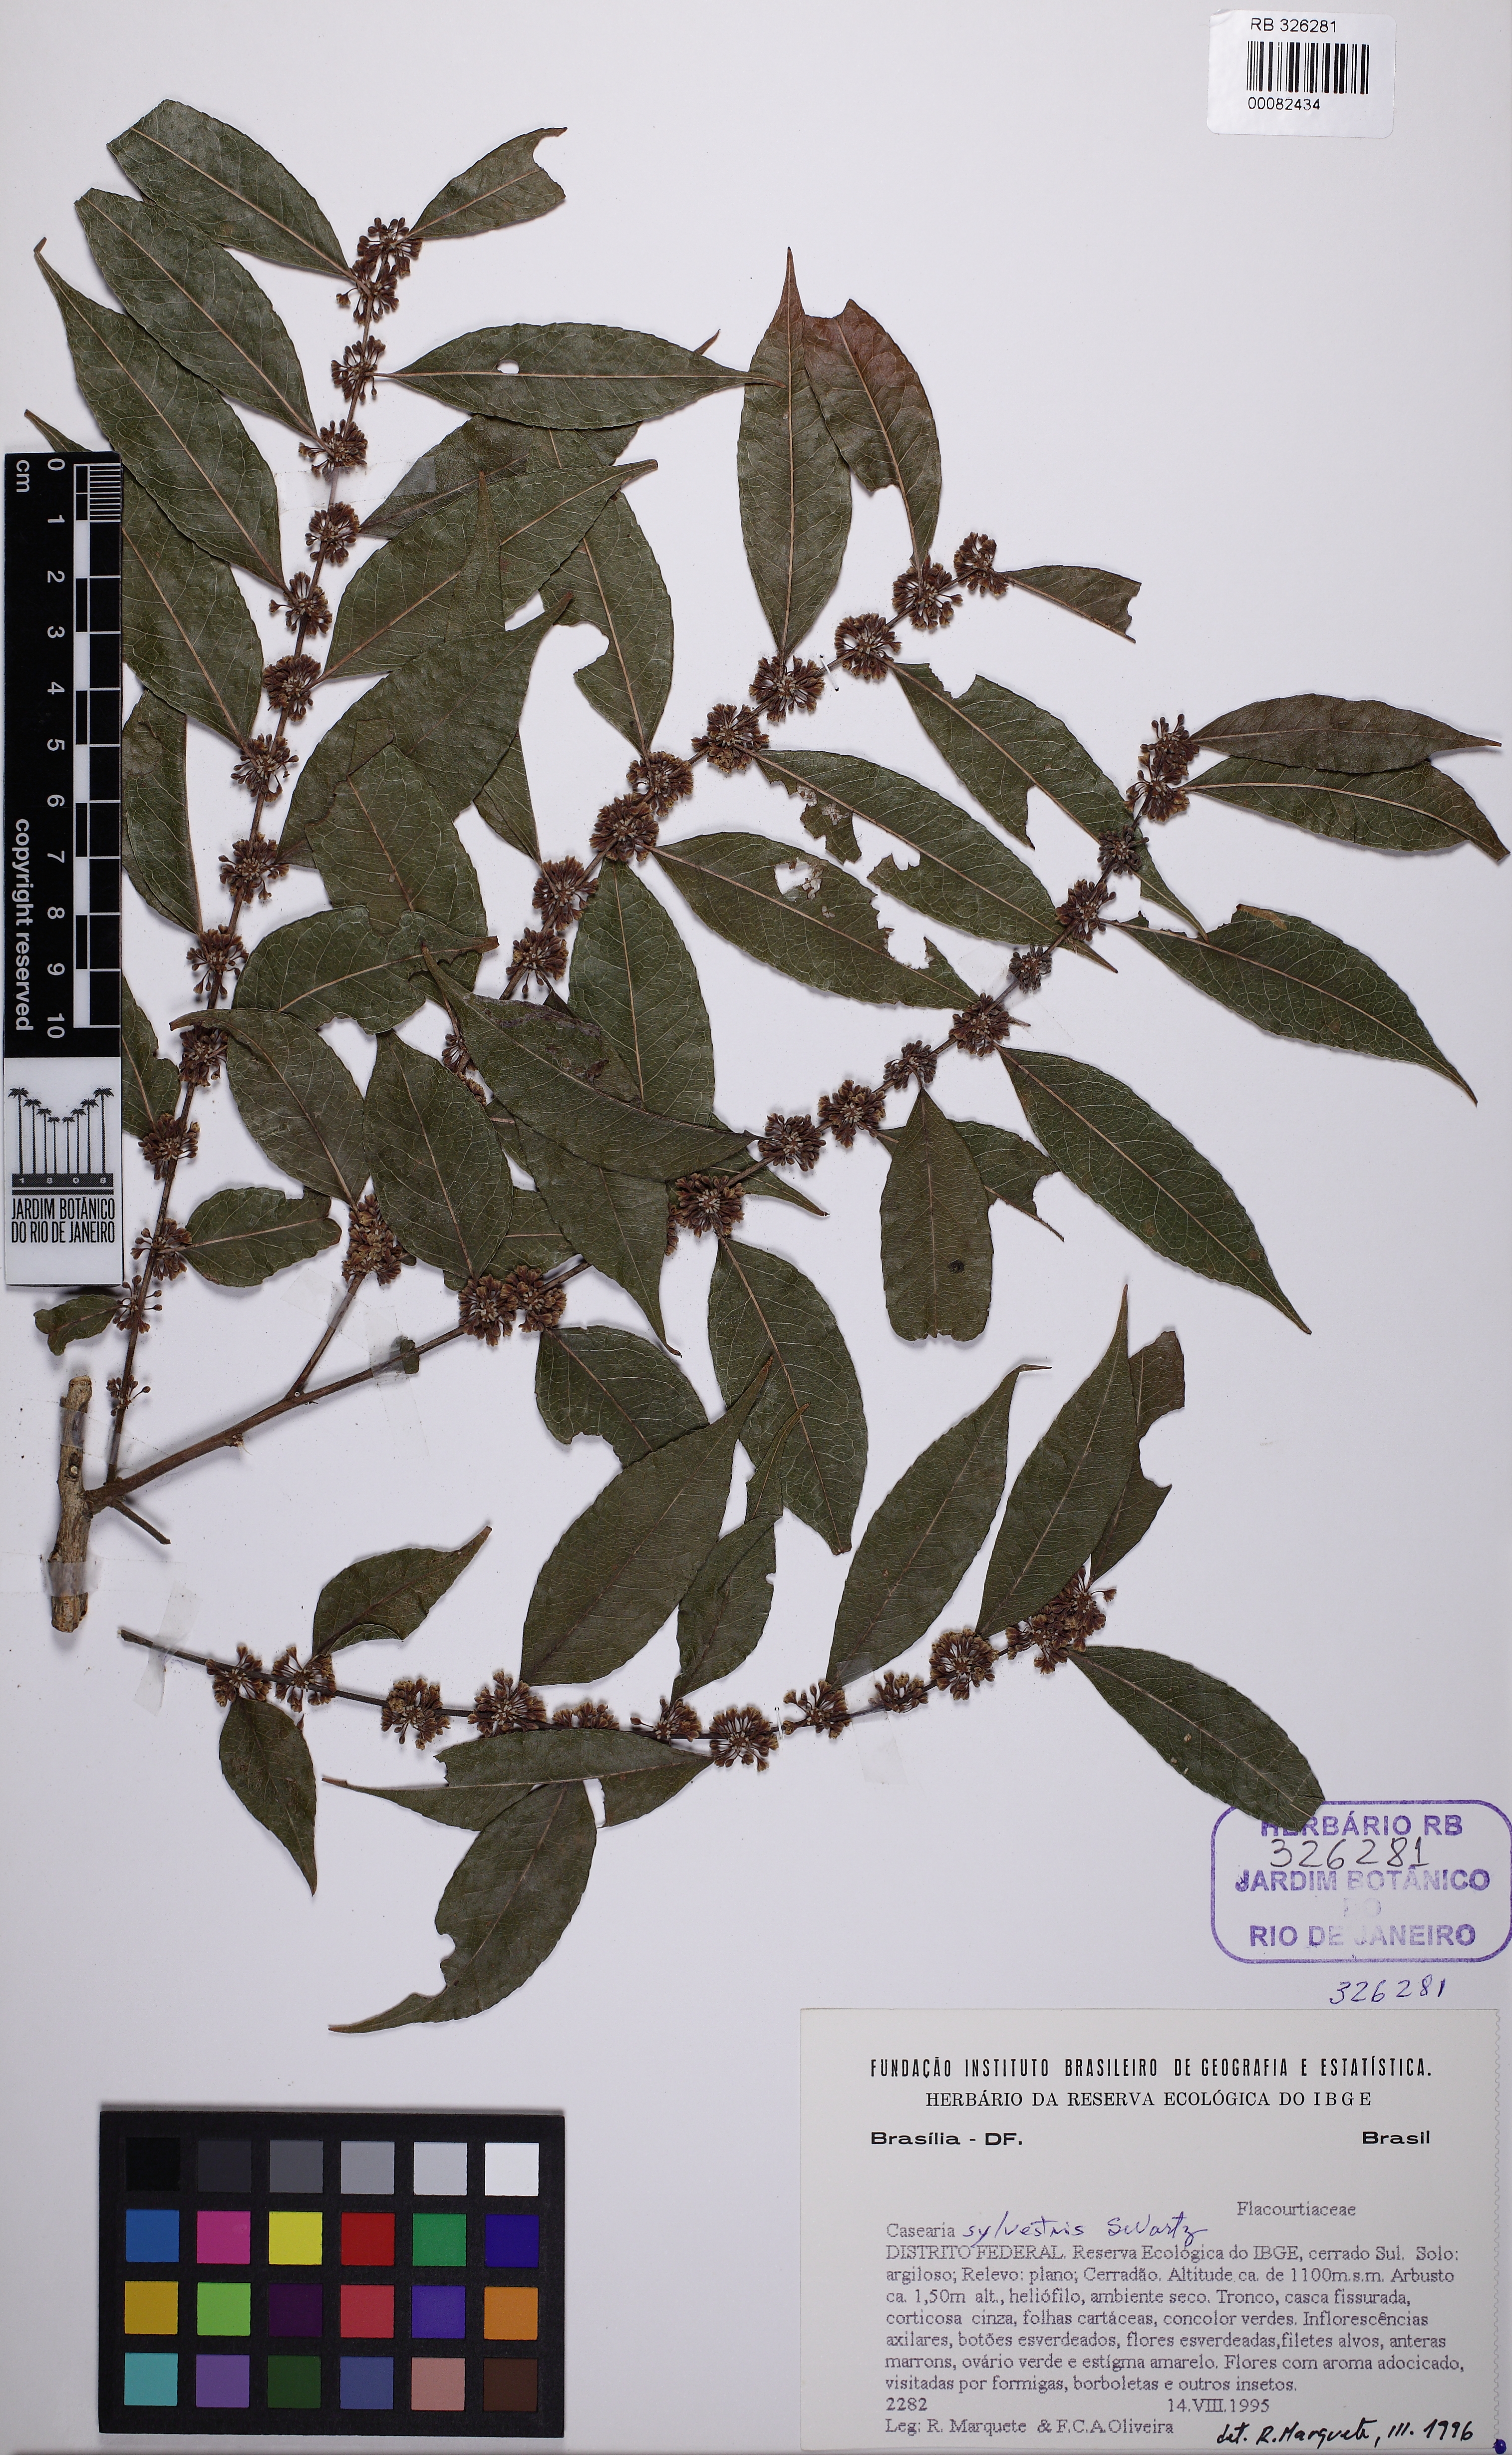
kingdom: Plantae
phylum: Tracheophyta
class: Magnoliopsida
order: Malpighiales
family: Salicaceae
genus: Casearia
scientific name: Casearia sylvestris
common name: Wild sage
